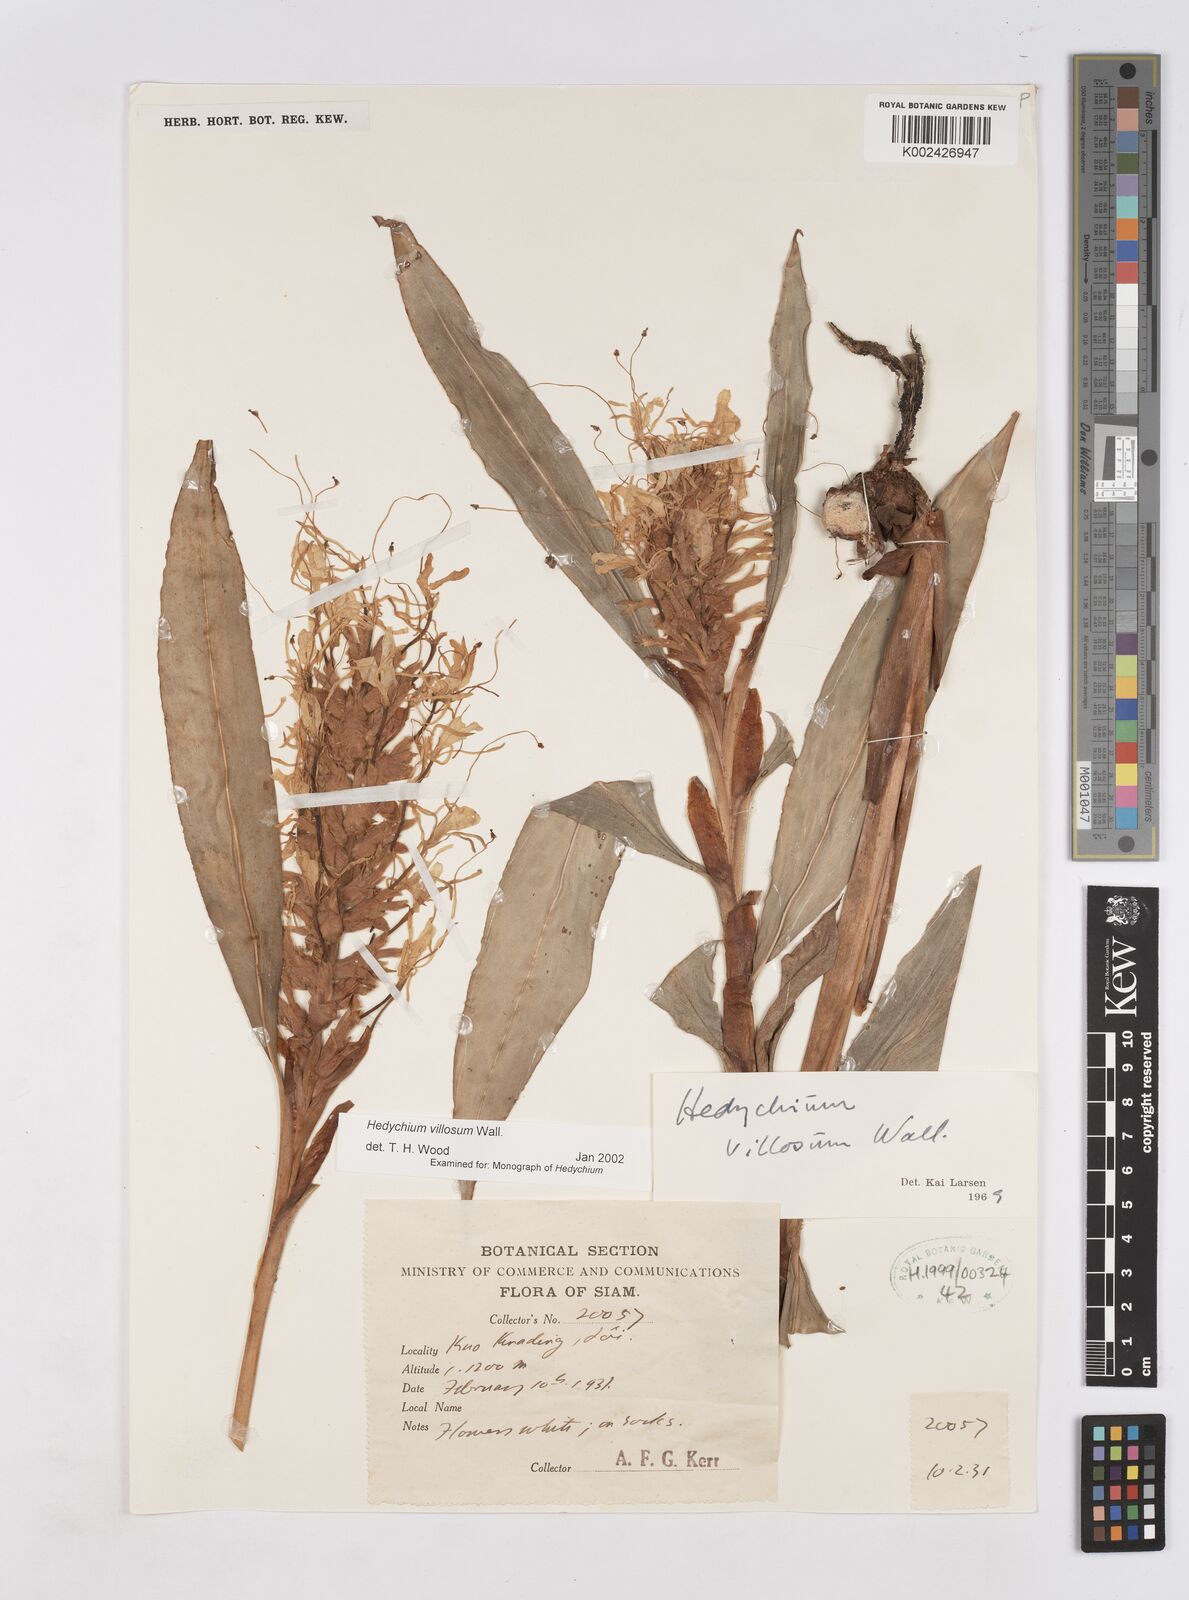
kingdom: Plantae
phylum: Tracheophyta
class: Liliopsida
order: Zingiberales
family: Zingiberaceae
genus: Hedychium
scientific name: Hedychium villosum
